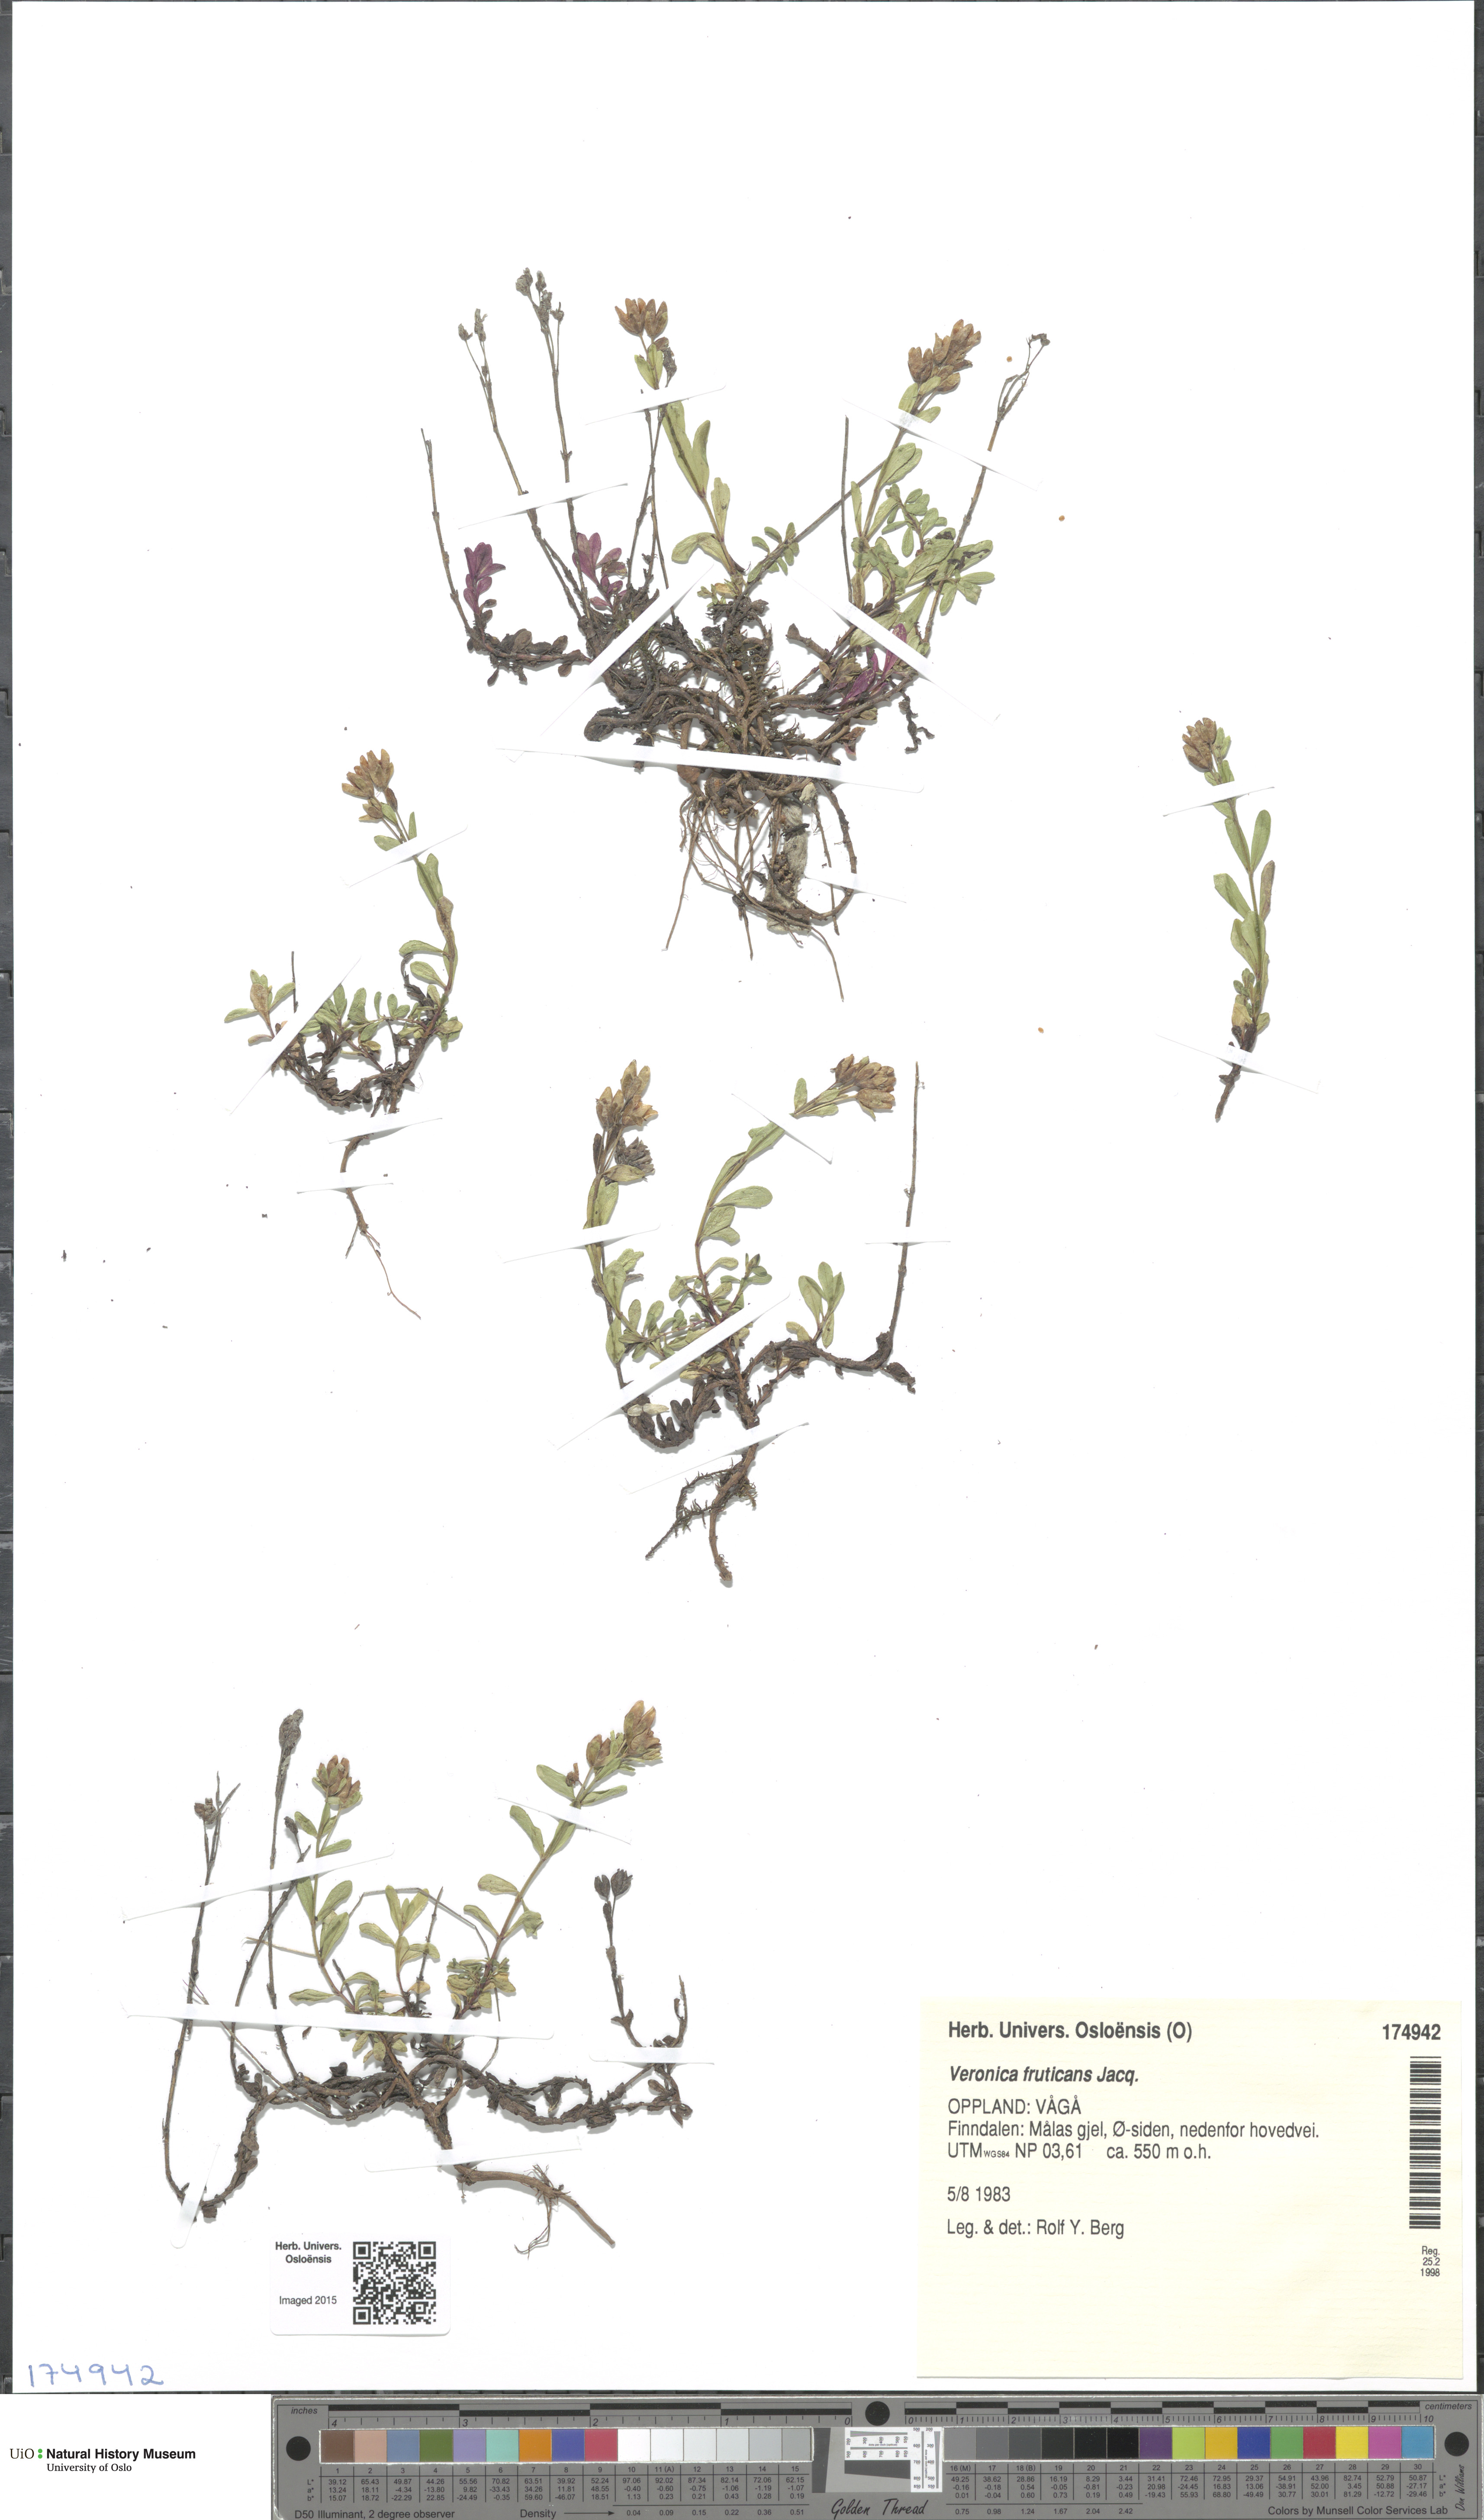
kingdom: Plantae
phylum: Tracheophyta
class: Magnoliopsida
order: Lamiales
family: Plantaginaceae
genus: Veronica
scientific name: Veronica fruticans
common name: Rock speedwell
